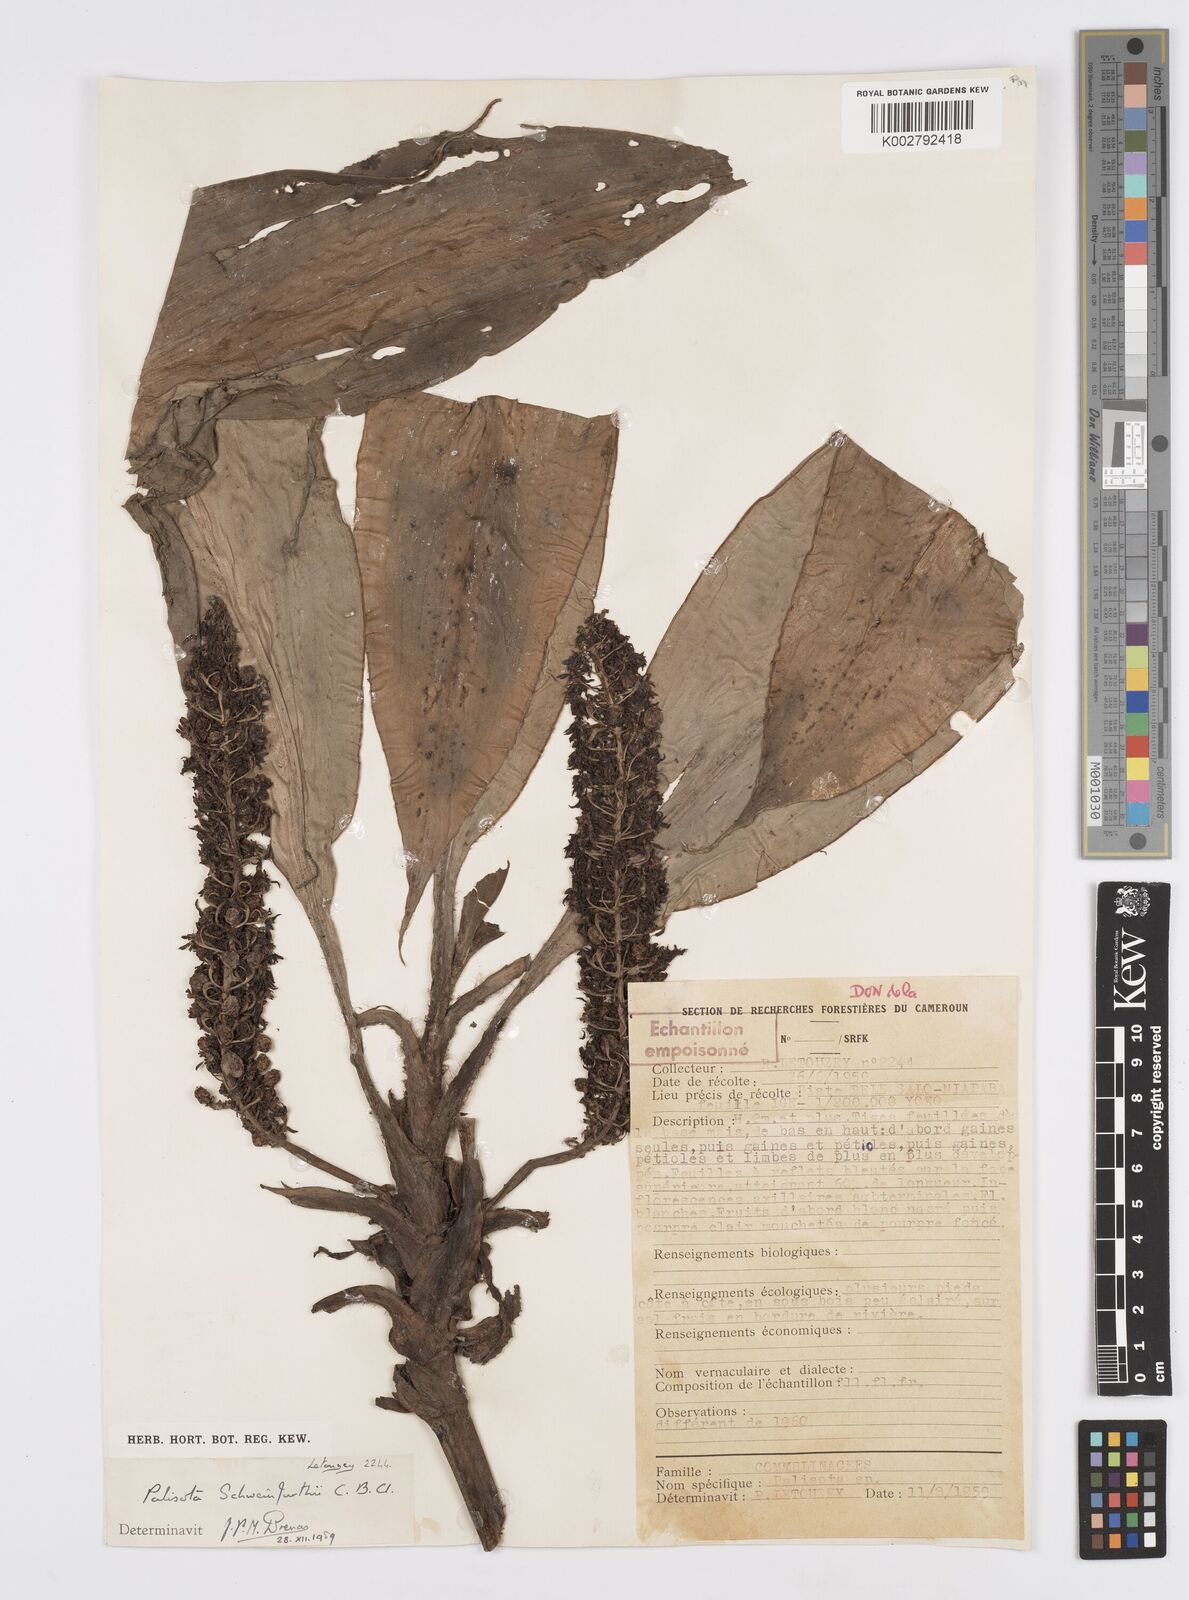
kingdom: Plantae
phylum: Tracheophyta
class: Liliopsida
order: Commelinales
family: Commelinaceae
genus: Palisota
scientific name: Palisota schweinfurthii
